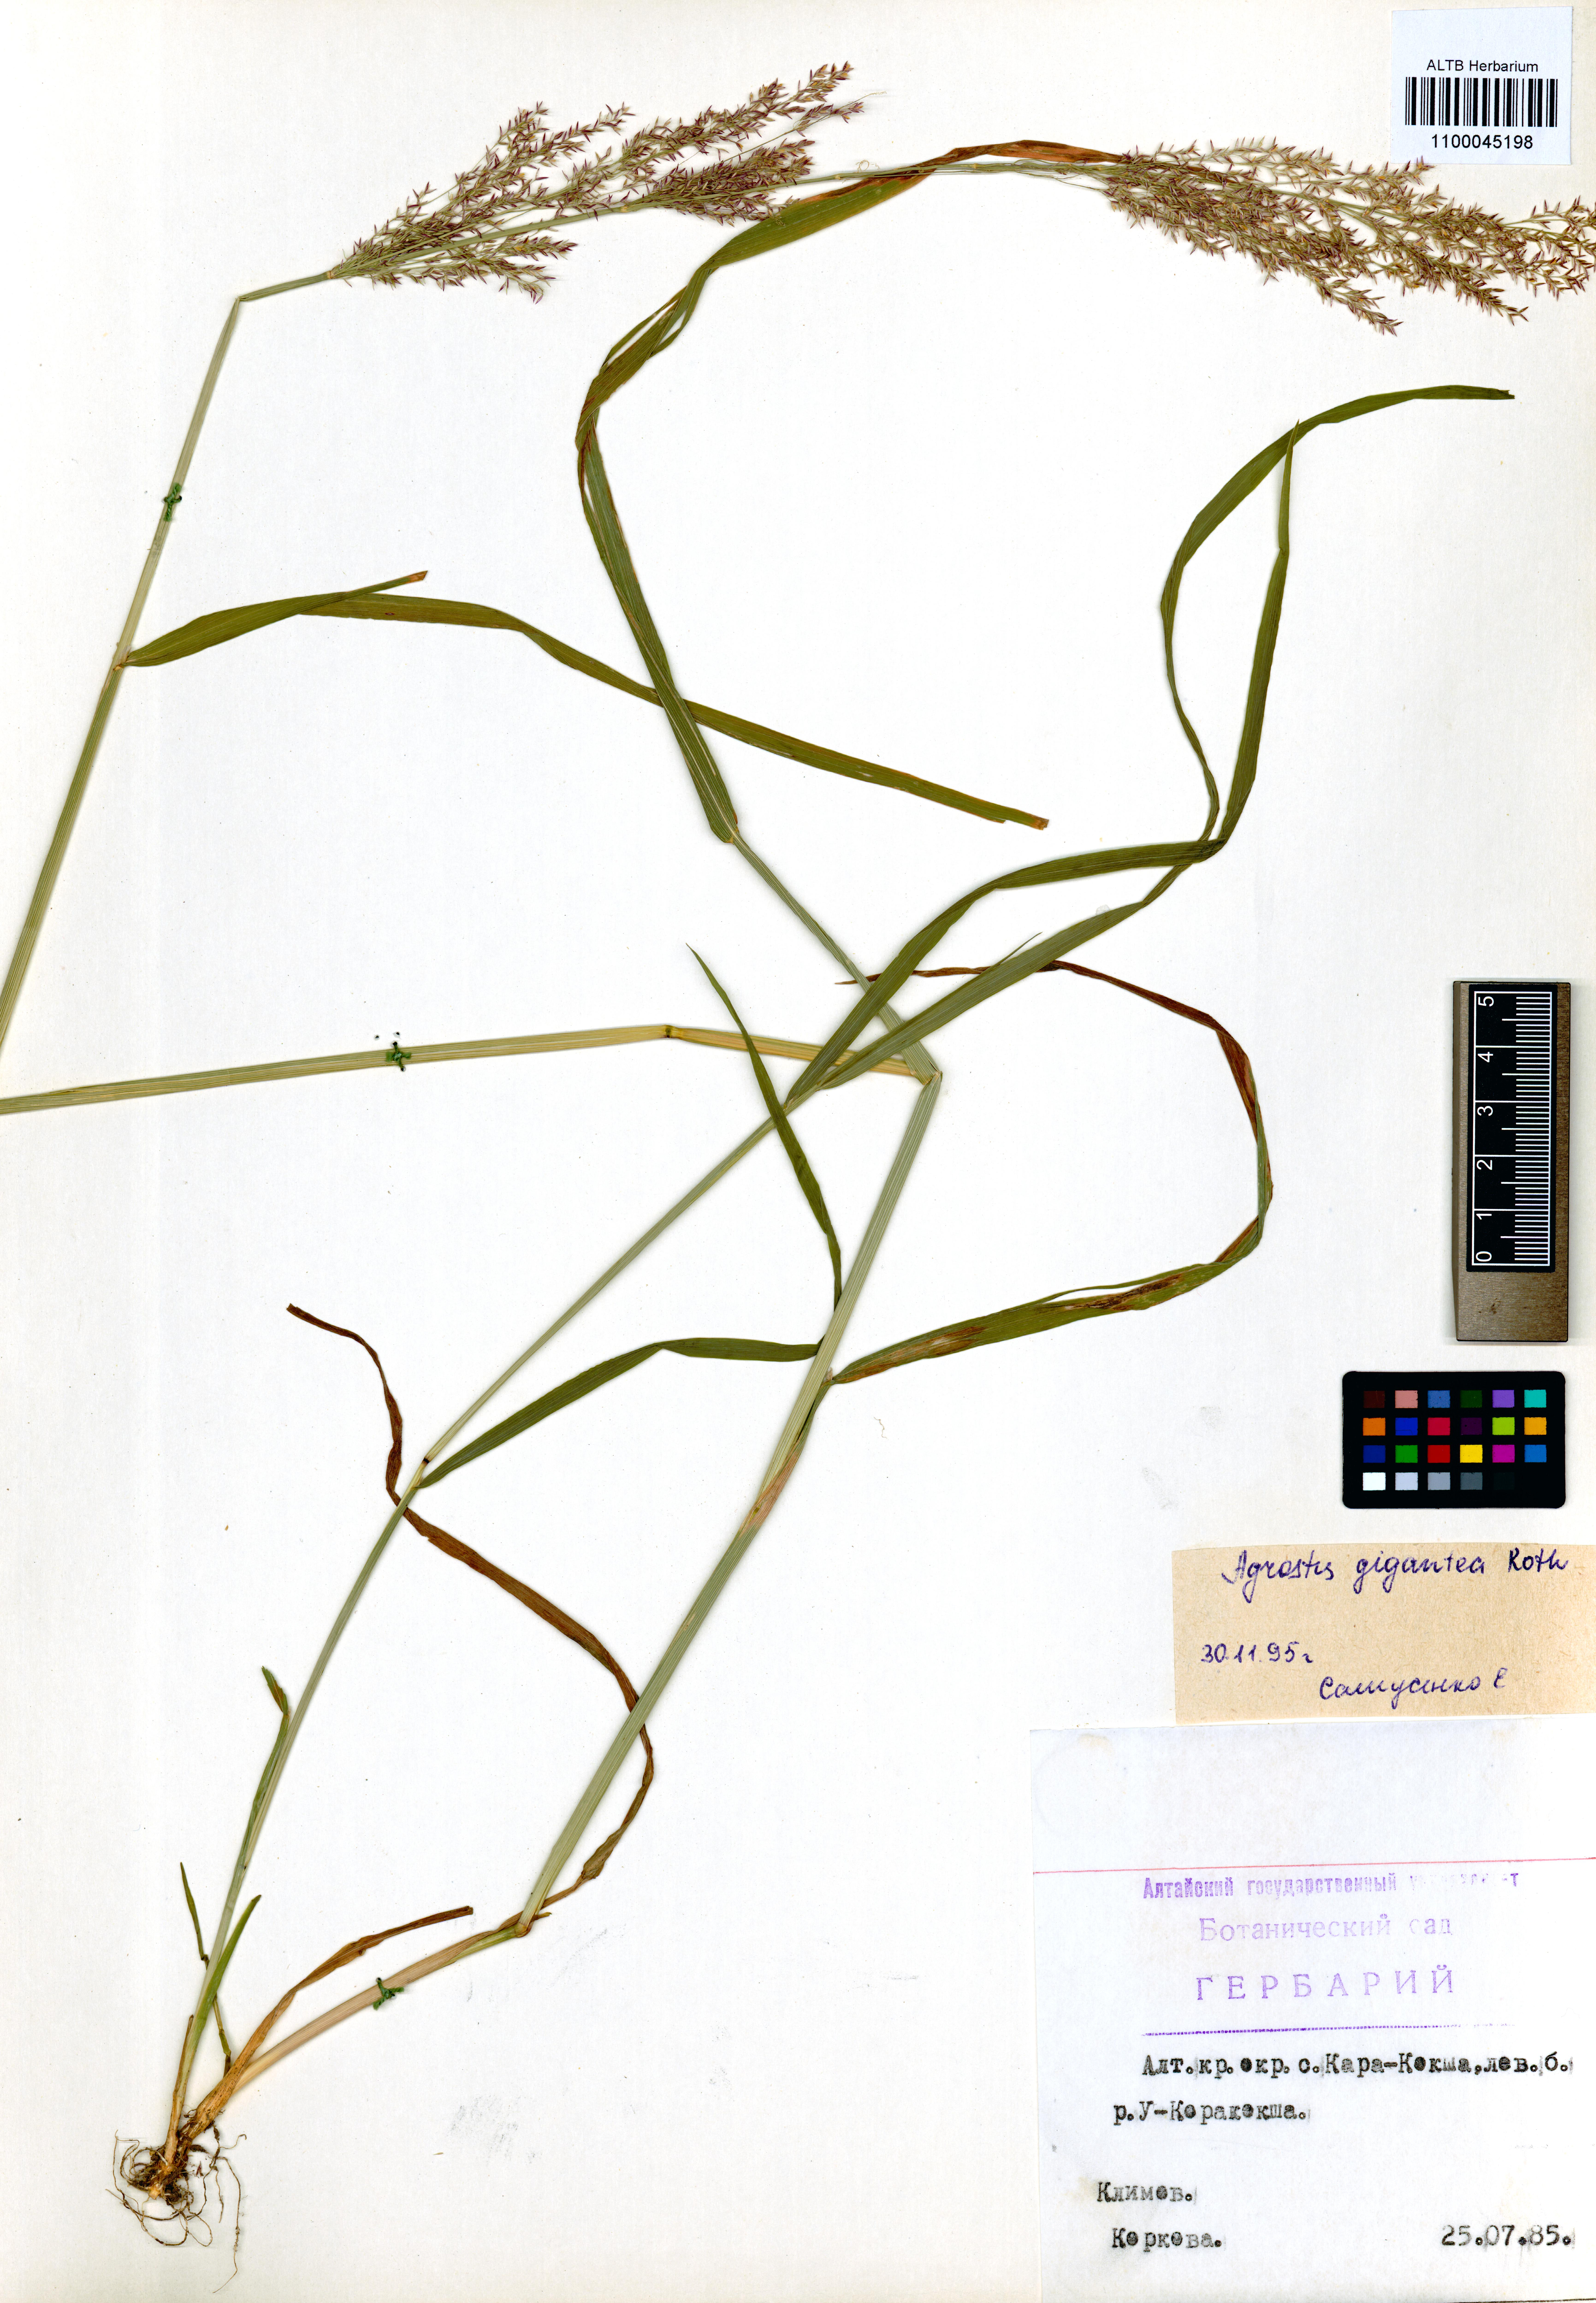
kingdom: Plantae
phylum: Tracheophyta
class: Liliopsida
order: Poales
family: Poaceae
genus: Agrostis
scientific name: Agrostis gigantea
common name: Black bent
